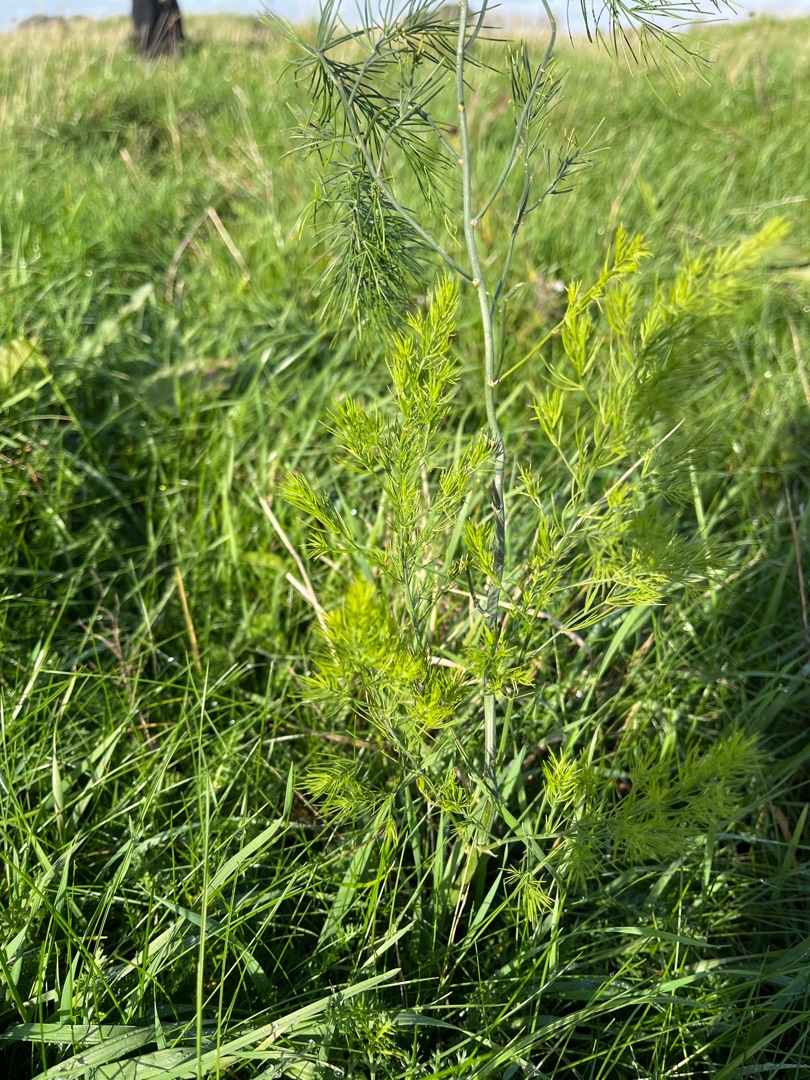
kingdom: Plantae
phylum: Tracheophyta
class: Liliopsida
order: Asparagales
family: Asparagaceae
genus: Asparagus
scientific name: Asparagus officinalis
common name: Asparges
